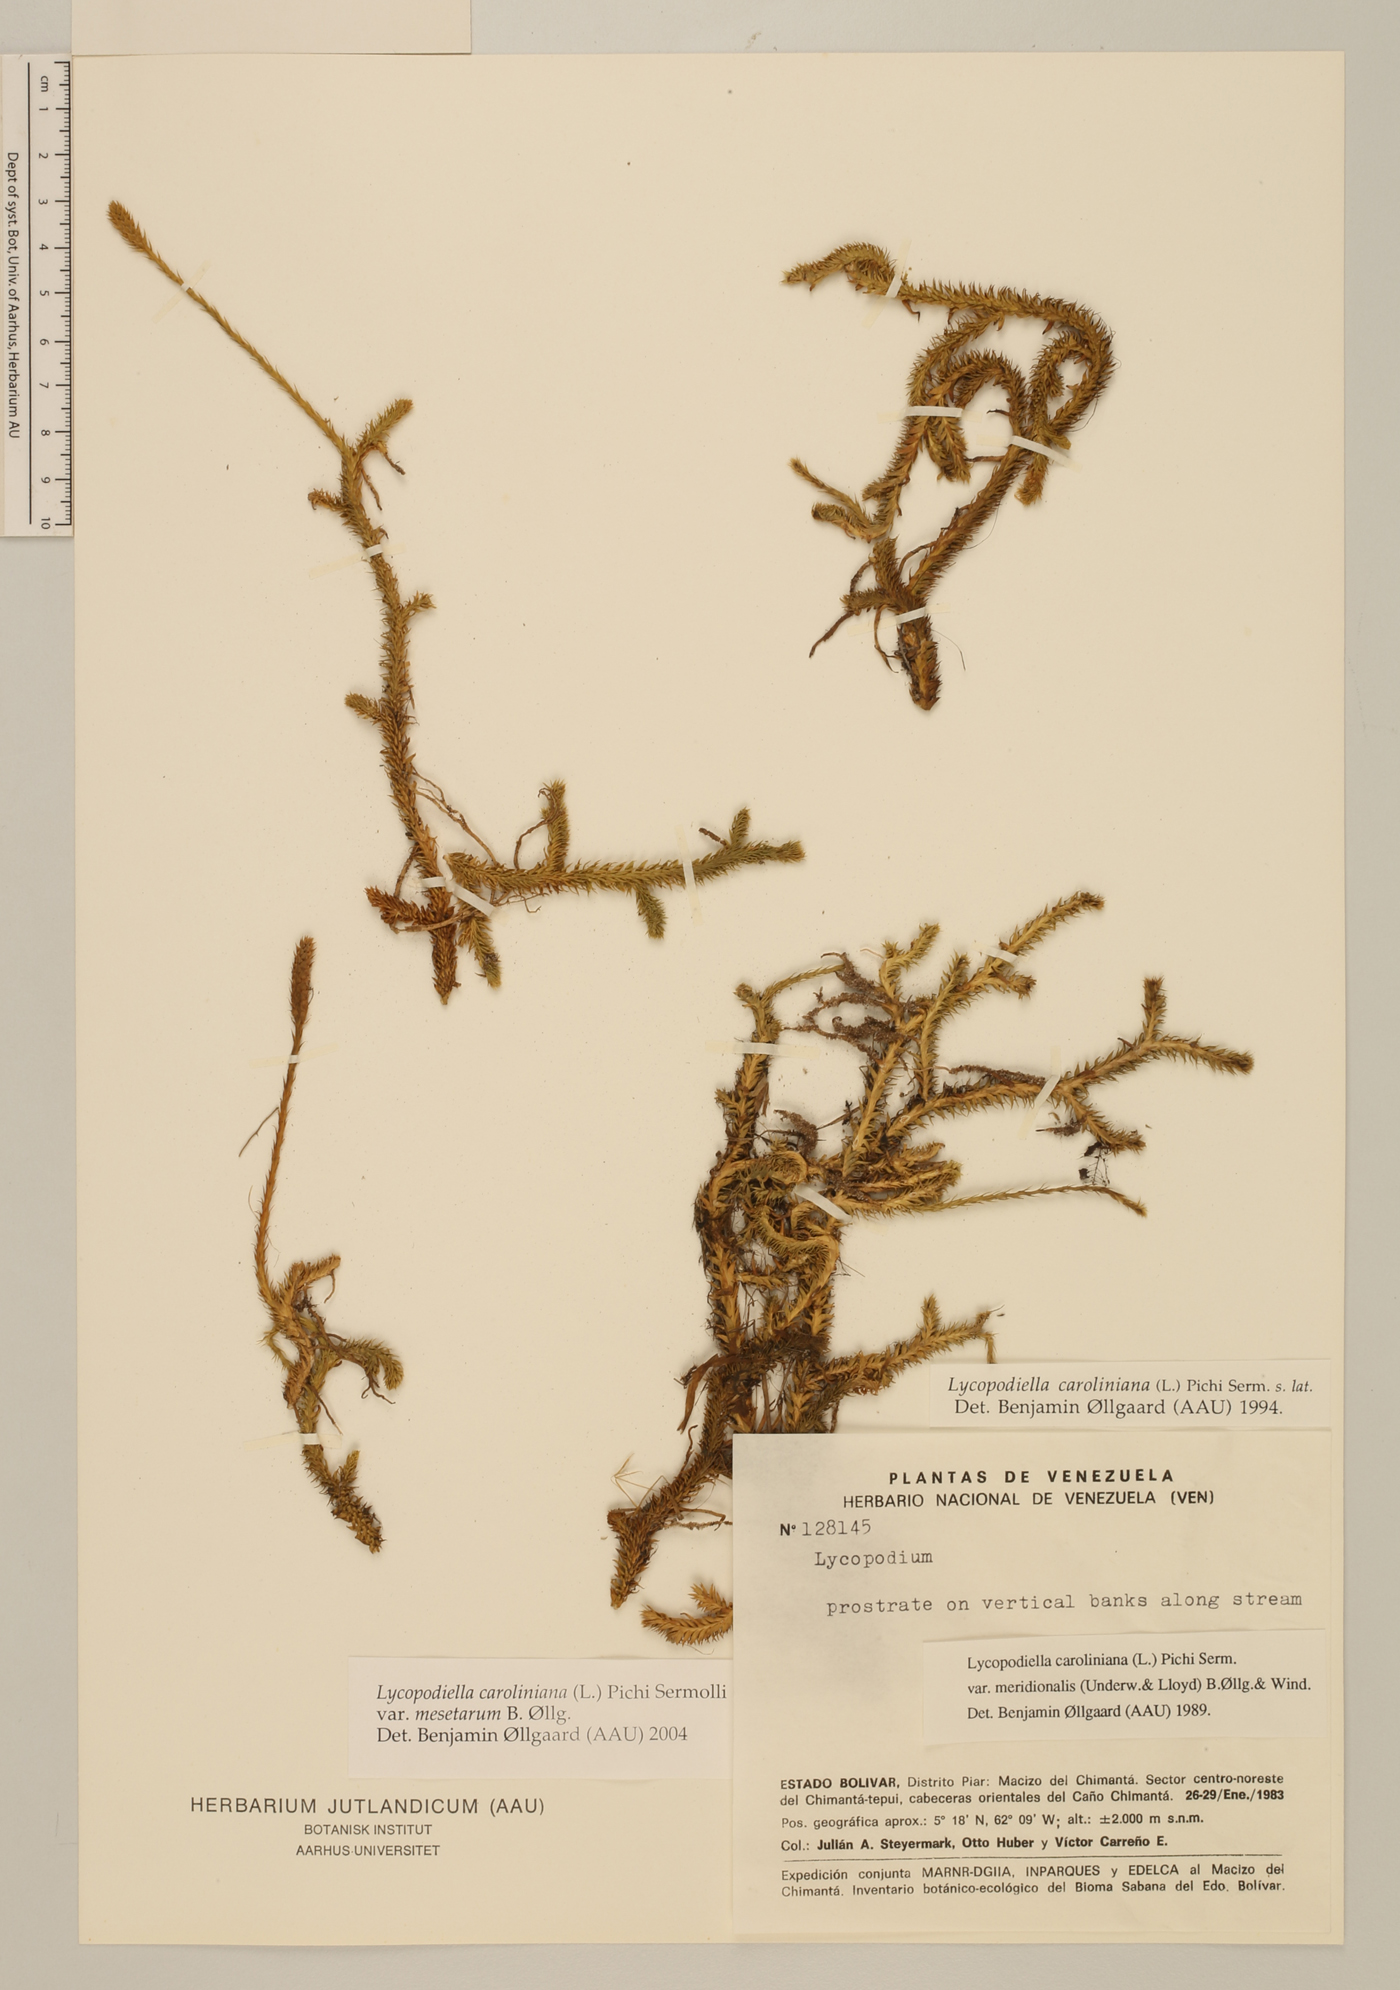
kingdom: Plantae
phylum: Tracheophyta
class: Lycopodiopsida
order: Lycopodiales
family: Lycopodiaceae
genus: Pseudolycopodiella
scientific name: Pseudolycopodiella meridionalis
